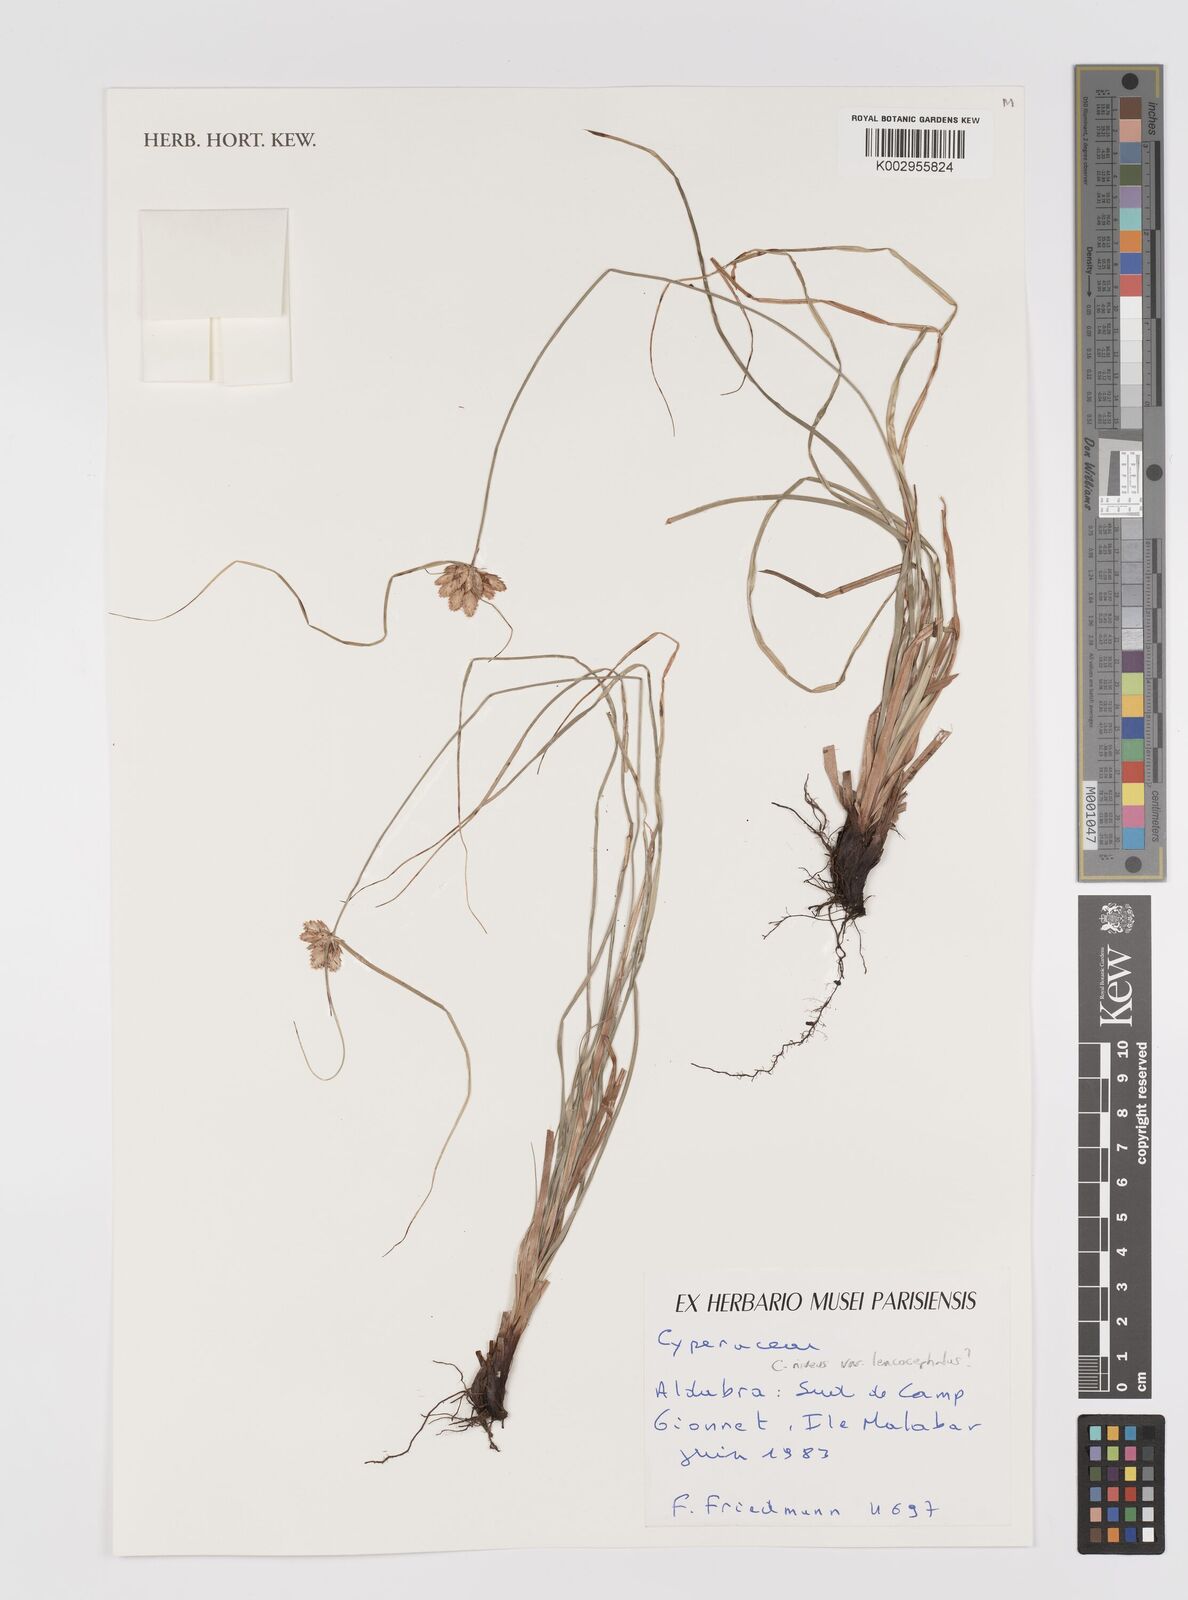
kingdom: Plantae
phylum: Tracheophyta
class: Liliopsida
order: Poales
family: Cyperaceae
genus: Cyperus
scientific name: Cyperus niveus
